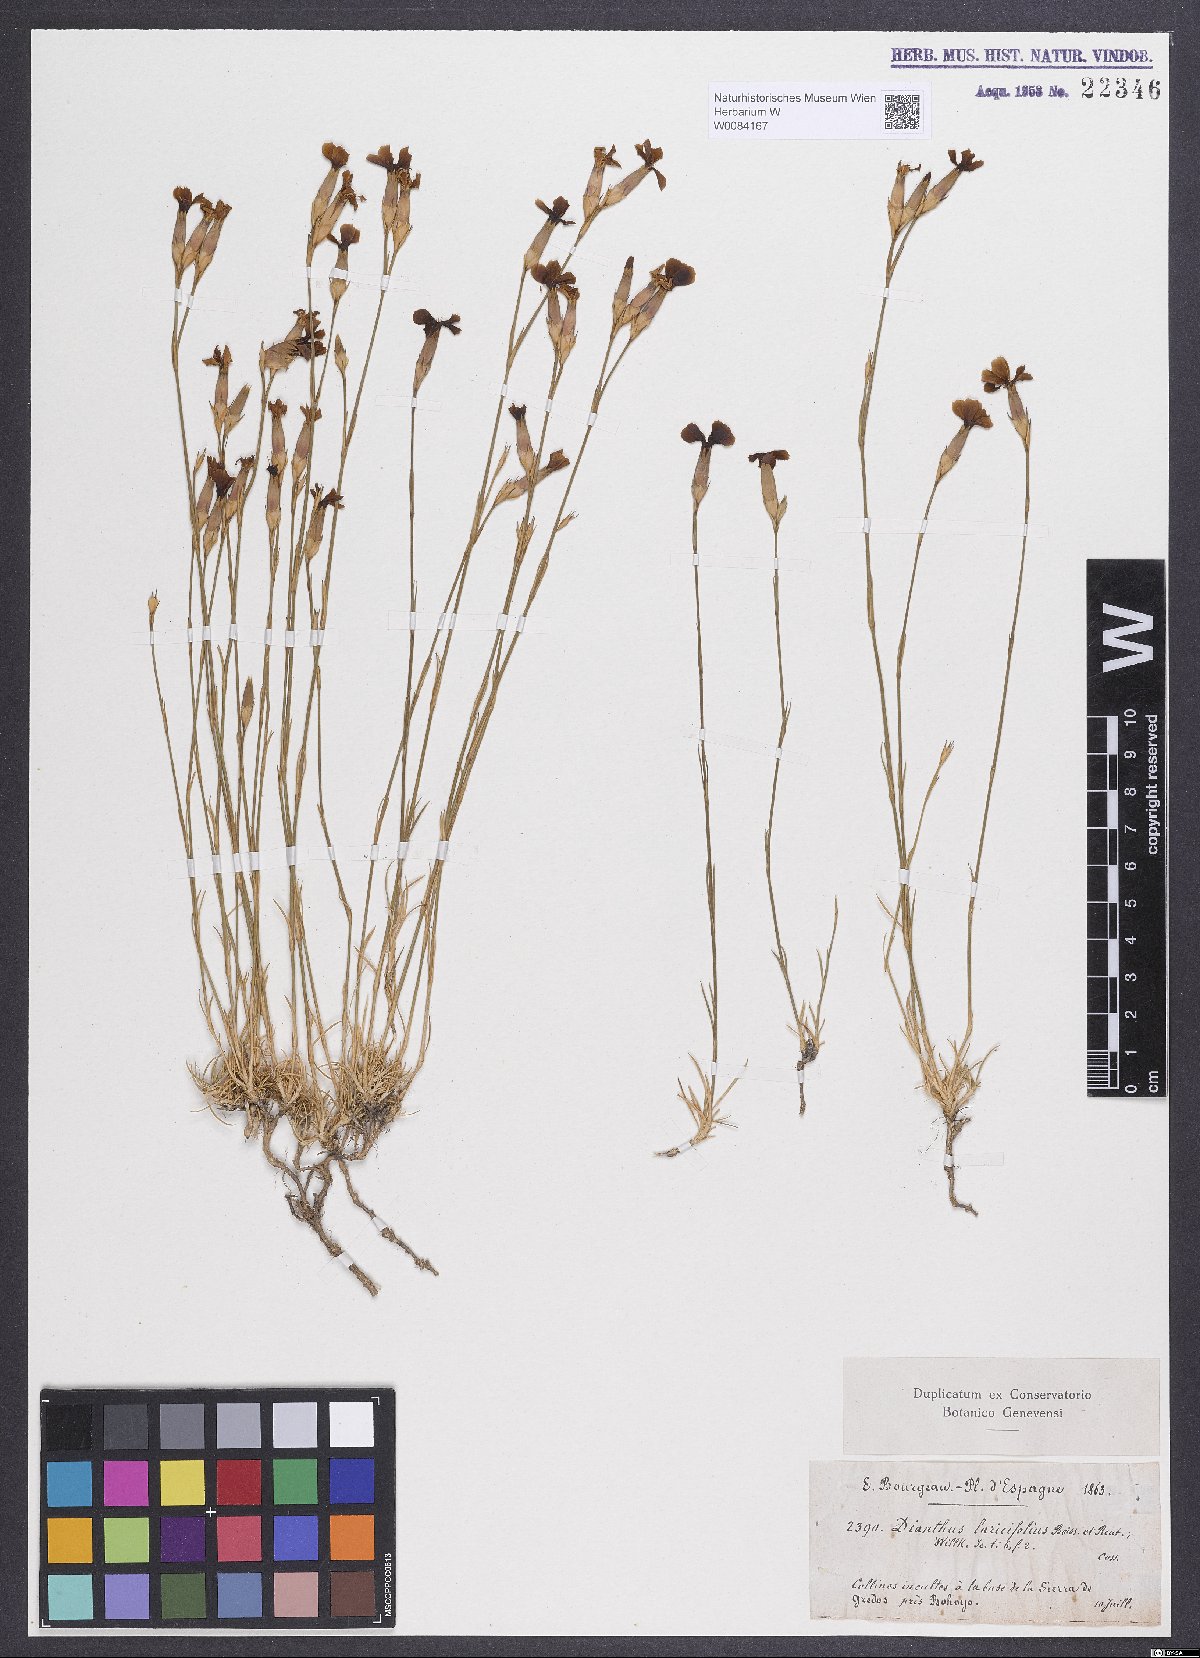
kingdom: Plantae
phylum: Tracheophyta
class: Magnoliopsida
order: Caryophyllales
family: Caryophyllaceae
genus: Dianthus
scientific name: Dianthus laricifolius
